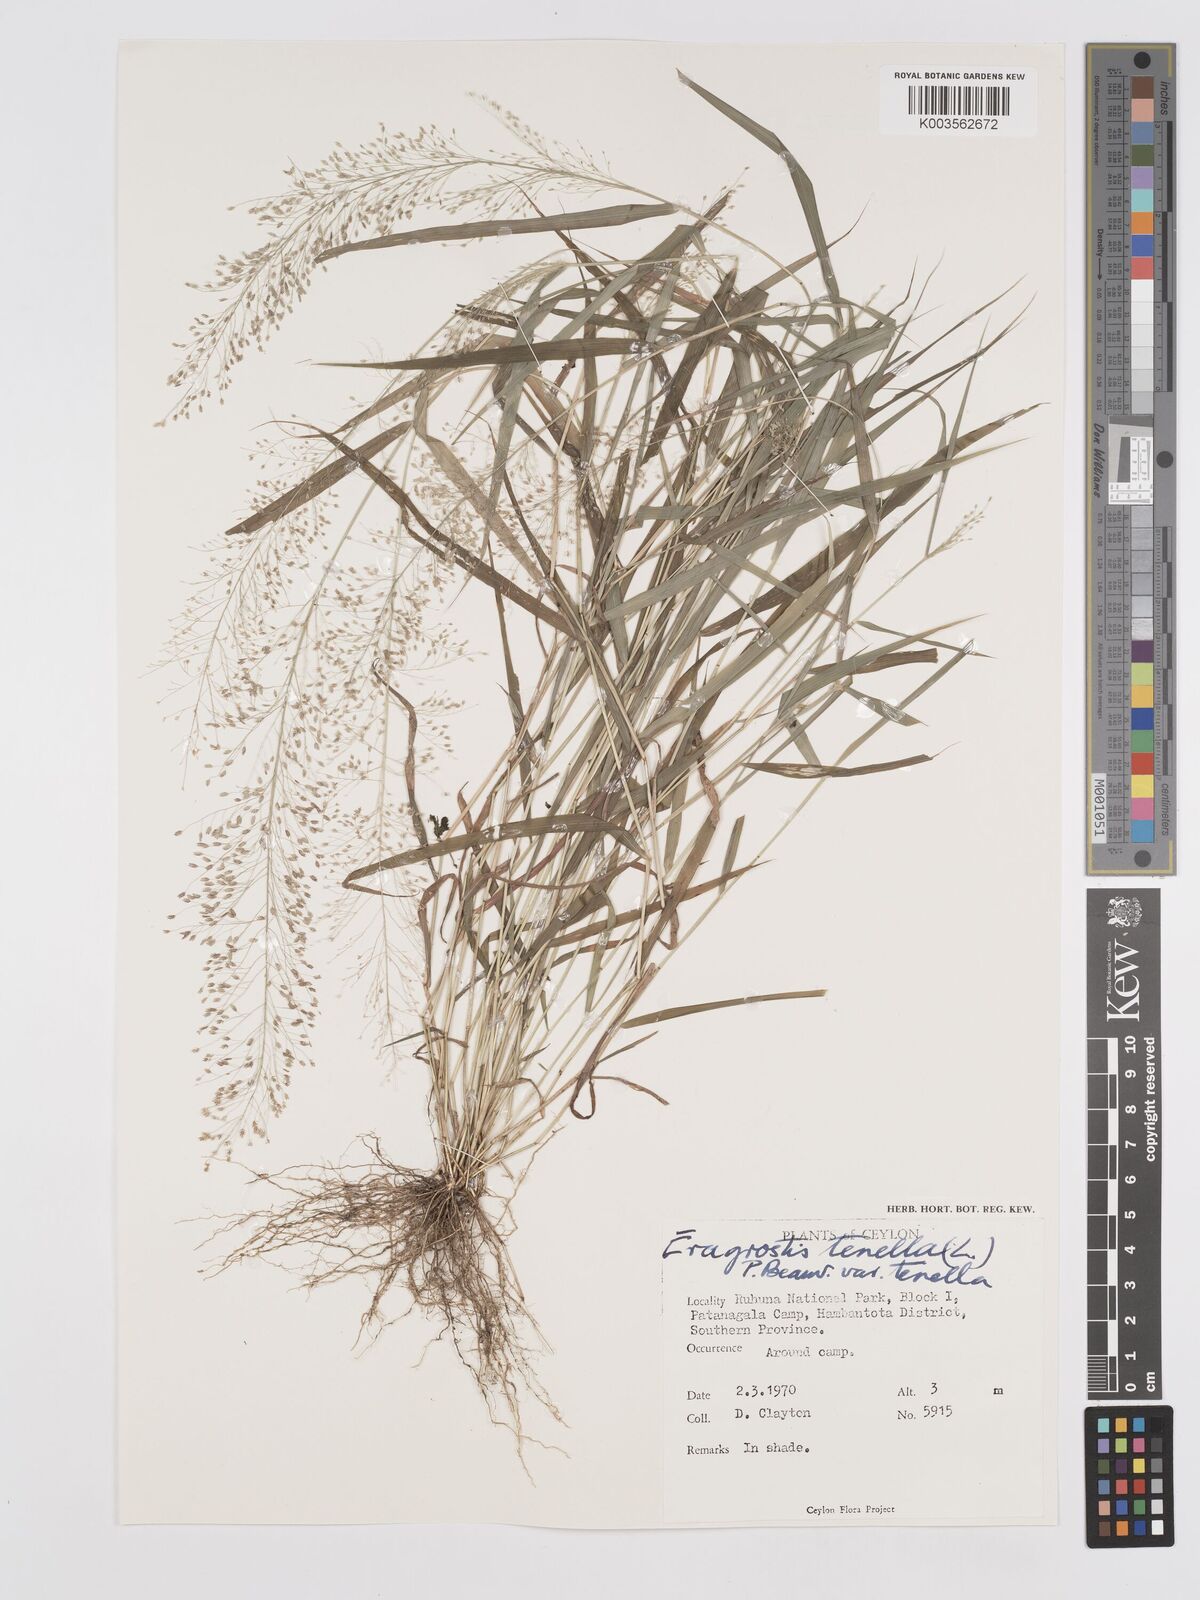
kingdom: Plantae
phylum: Tracheophyta
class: Liliopsida
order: Poales
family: Poaceae
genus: Eragrostis
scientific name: Eragrostis tenella
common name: Japanese lovegrass
